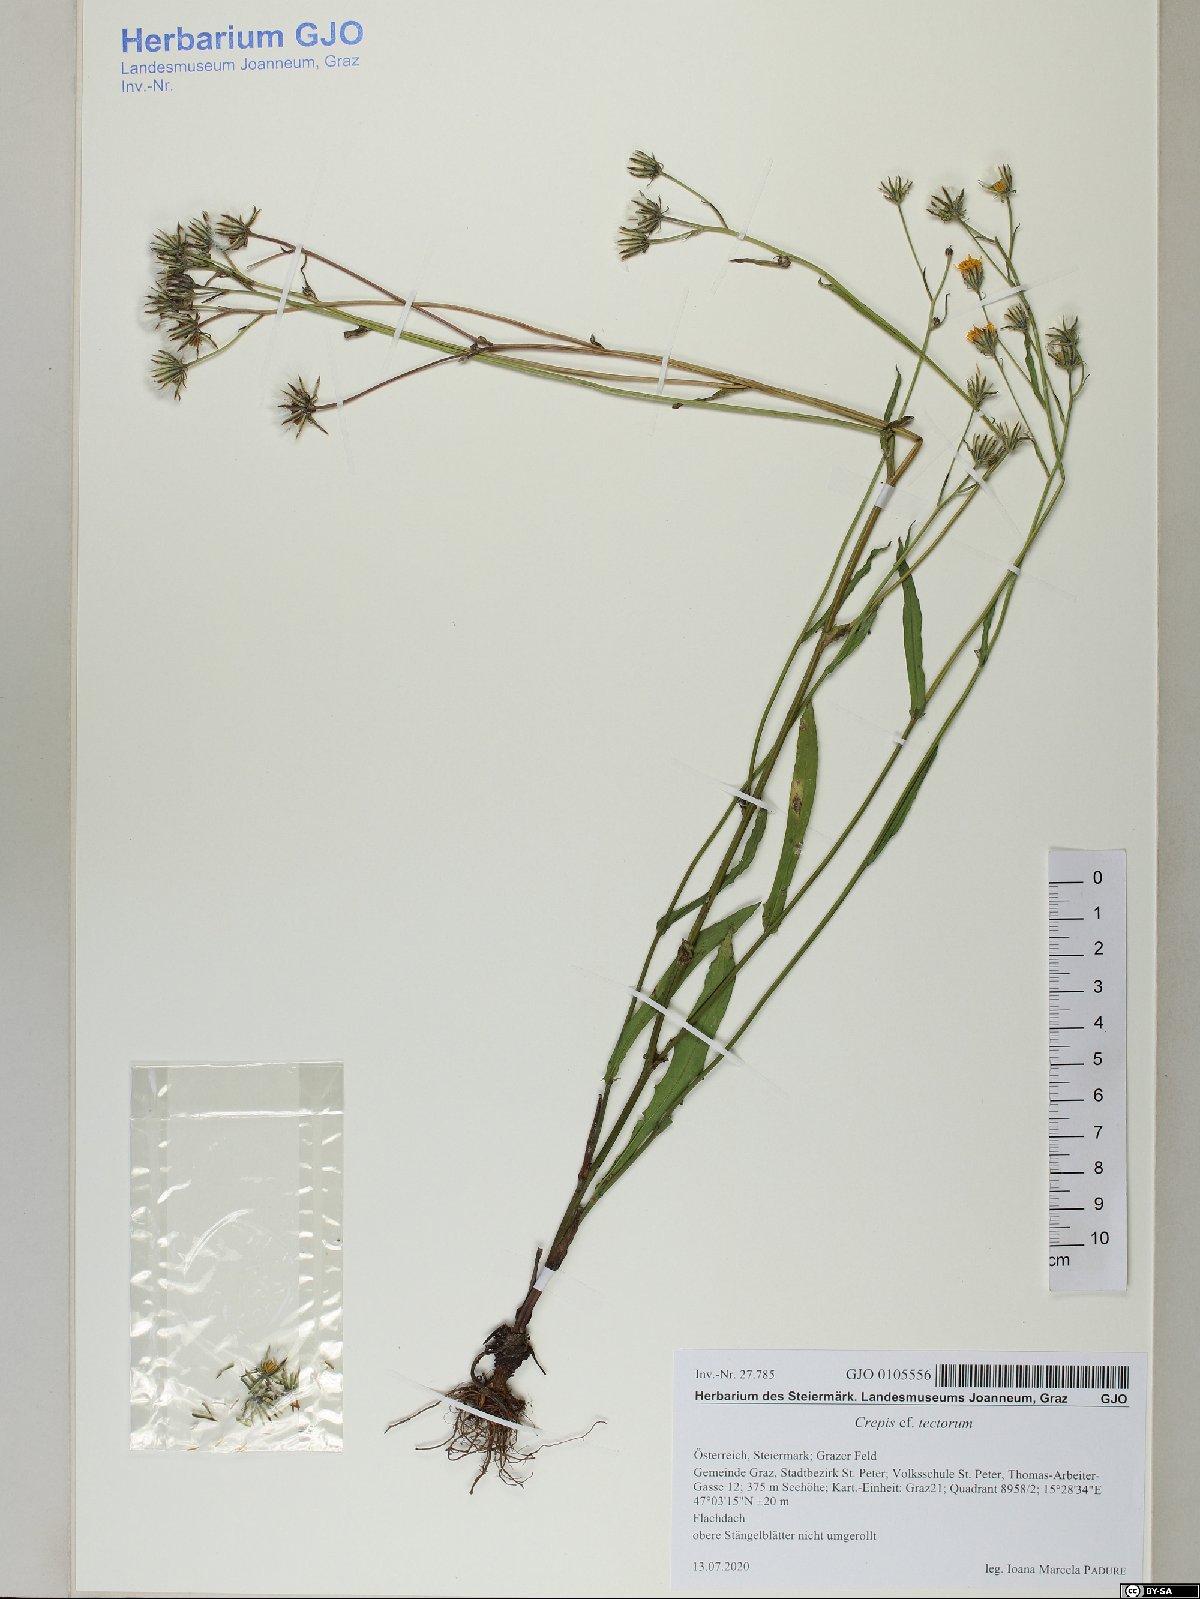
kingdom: Plantae
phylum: Tracheophyta
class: Magnoliopsida
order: Asterales
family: Asteraceae
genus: Crepis
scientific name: Crepis tectorum
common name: Narrow-leaved hawk's-beard
